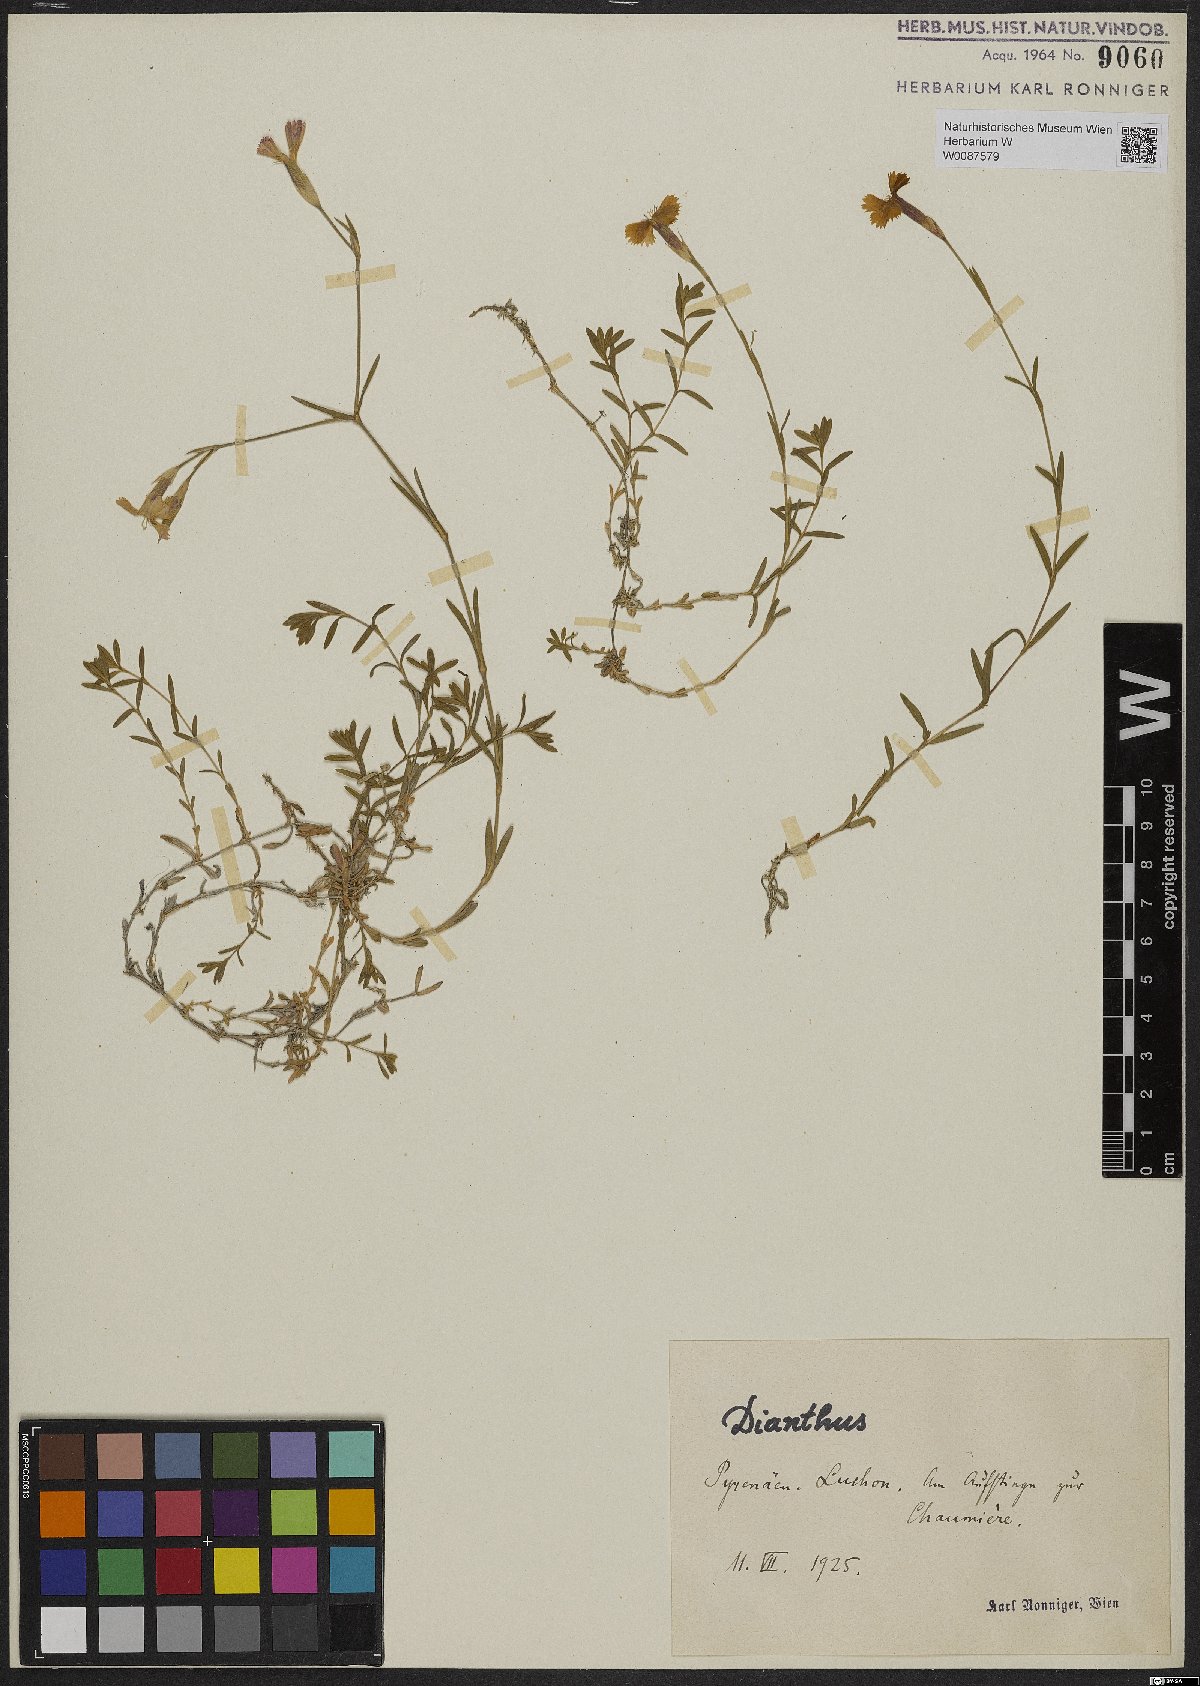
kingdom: Plantae
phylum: Tracheophyta
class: Magnoliopsida
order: Caryophyllales
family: Caryophyllaceae
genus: Dianthus
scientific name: Dianthus
